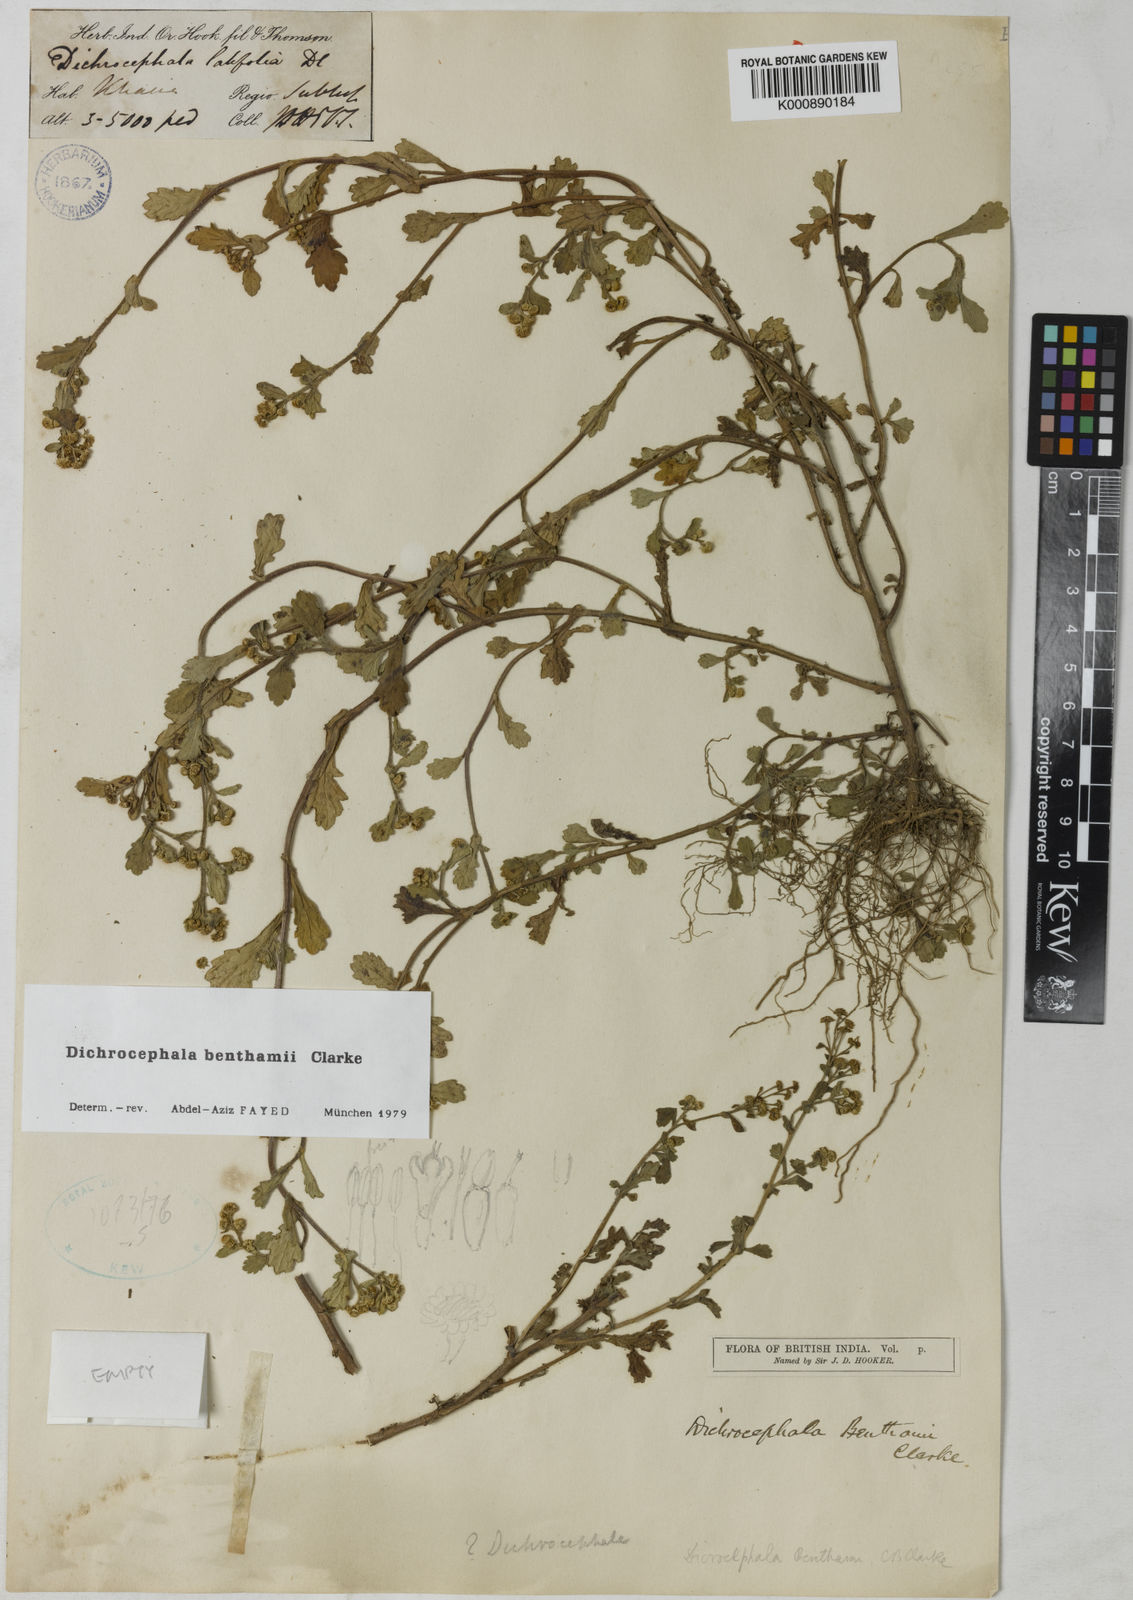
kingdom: Plantae
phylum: Tracheophyta
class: Magnoliopsida
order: Asterales
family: Asteraceae
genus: Dichrocephala
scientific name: Dichrocephala benthamii
